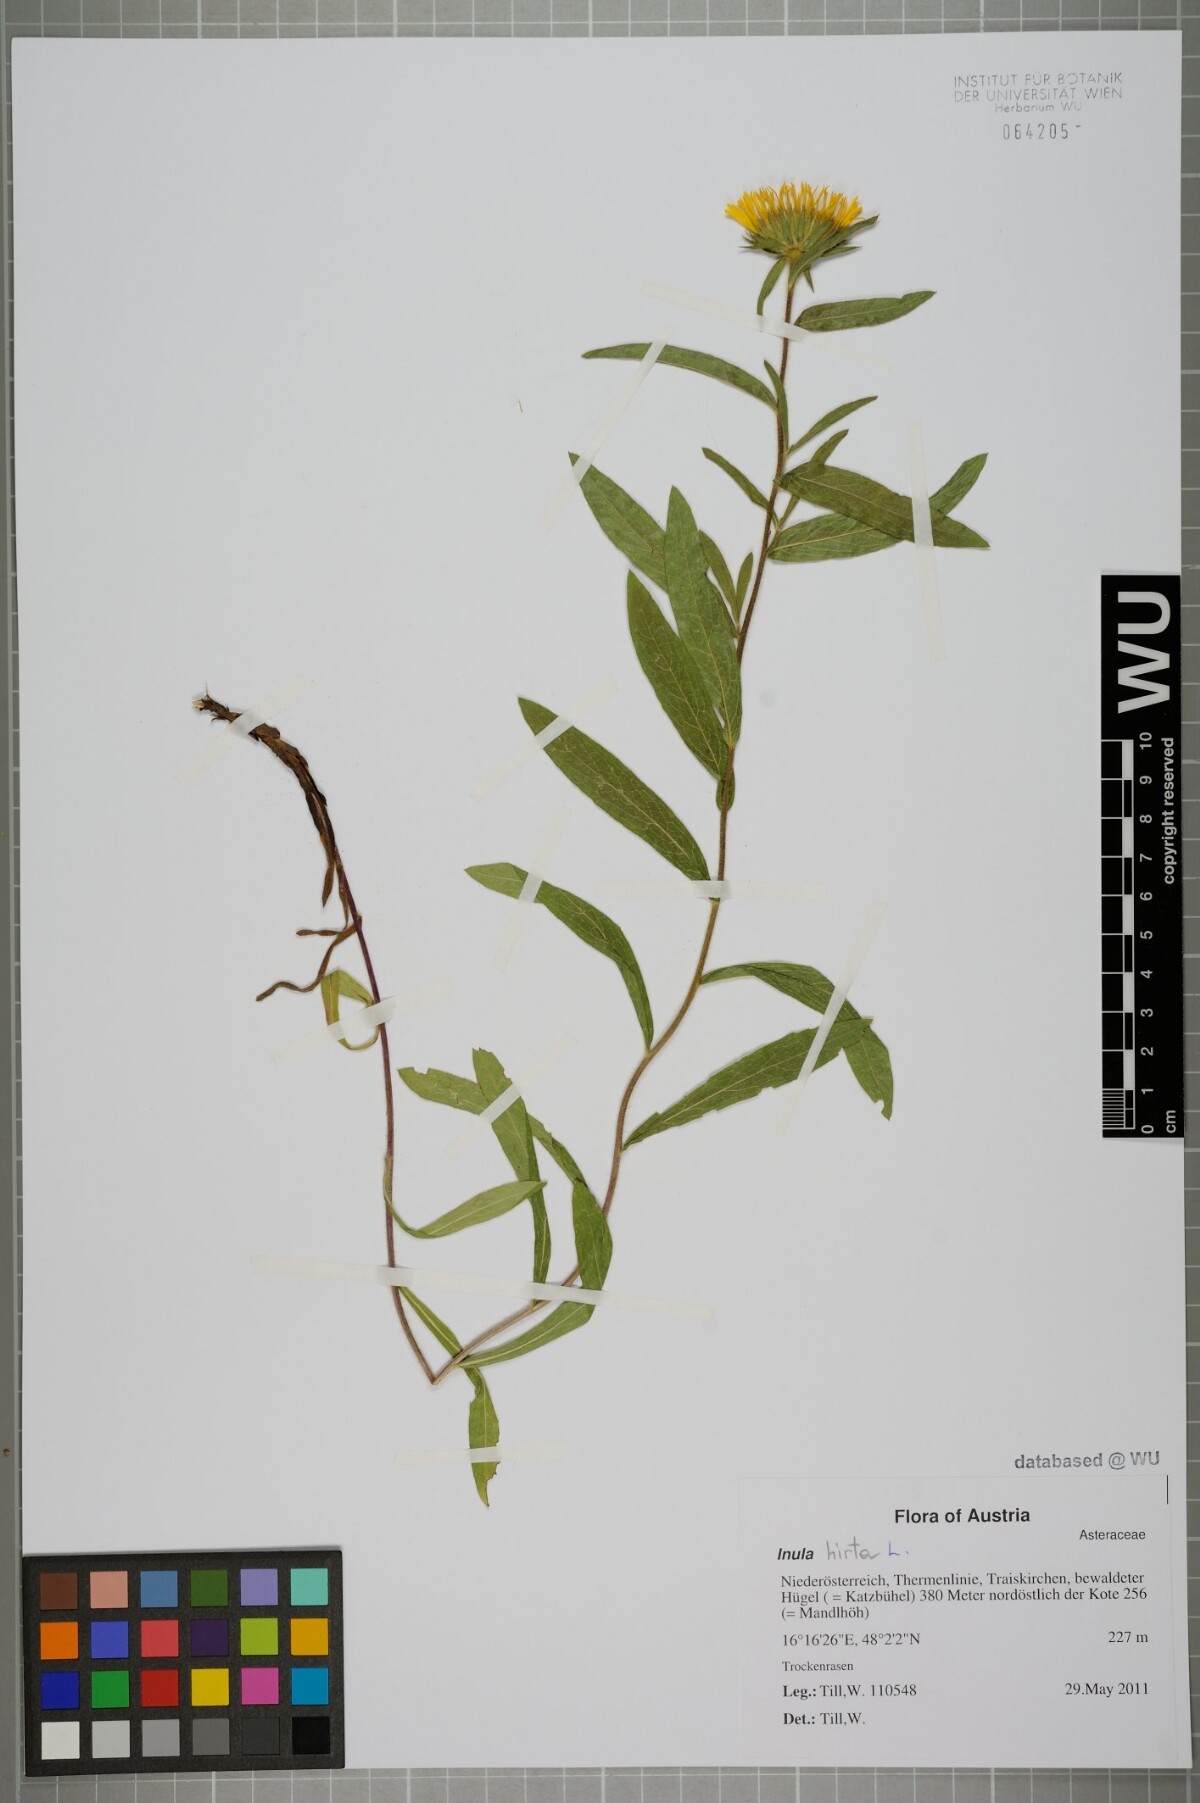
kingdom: Plantae
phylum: Tracheophyta
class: Magnoliopsida
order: Asterales
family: Asteraceae
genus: Pentanema
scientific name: Pentanema hirtum
